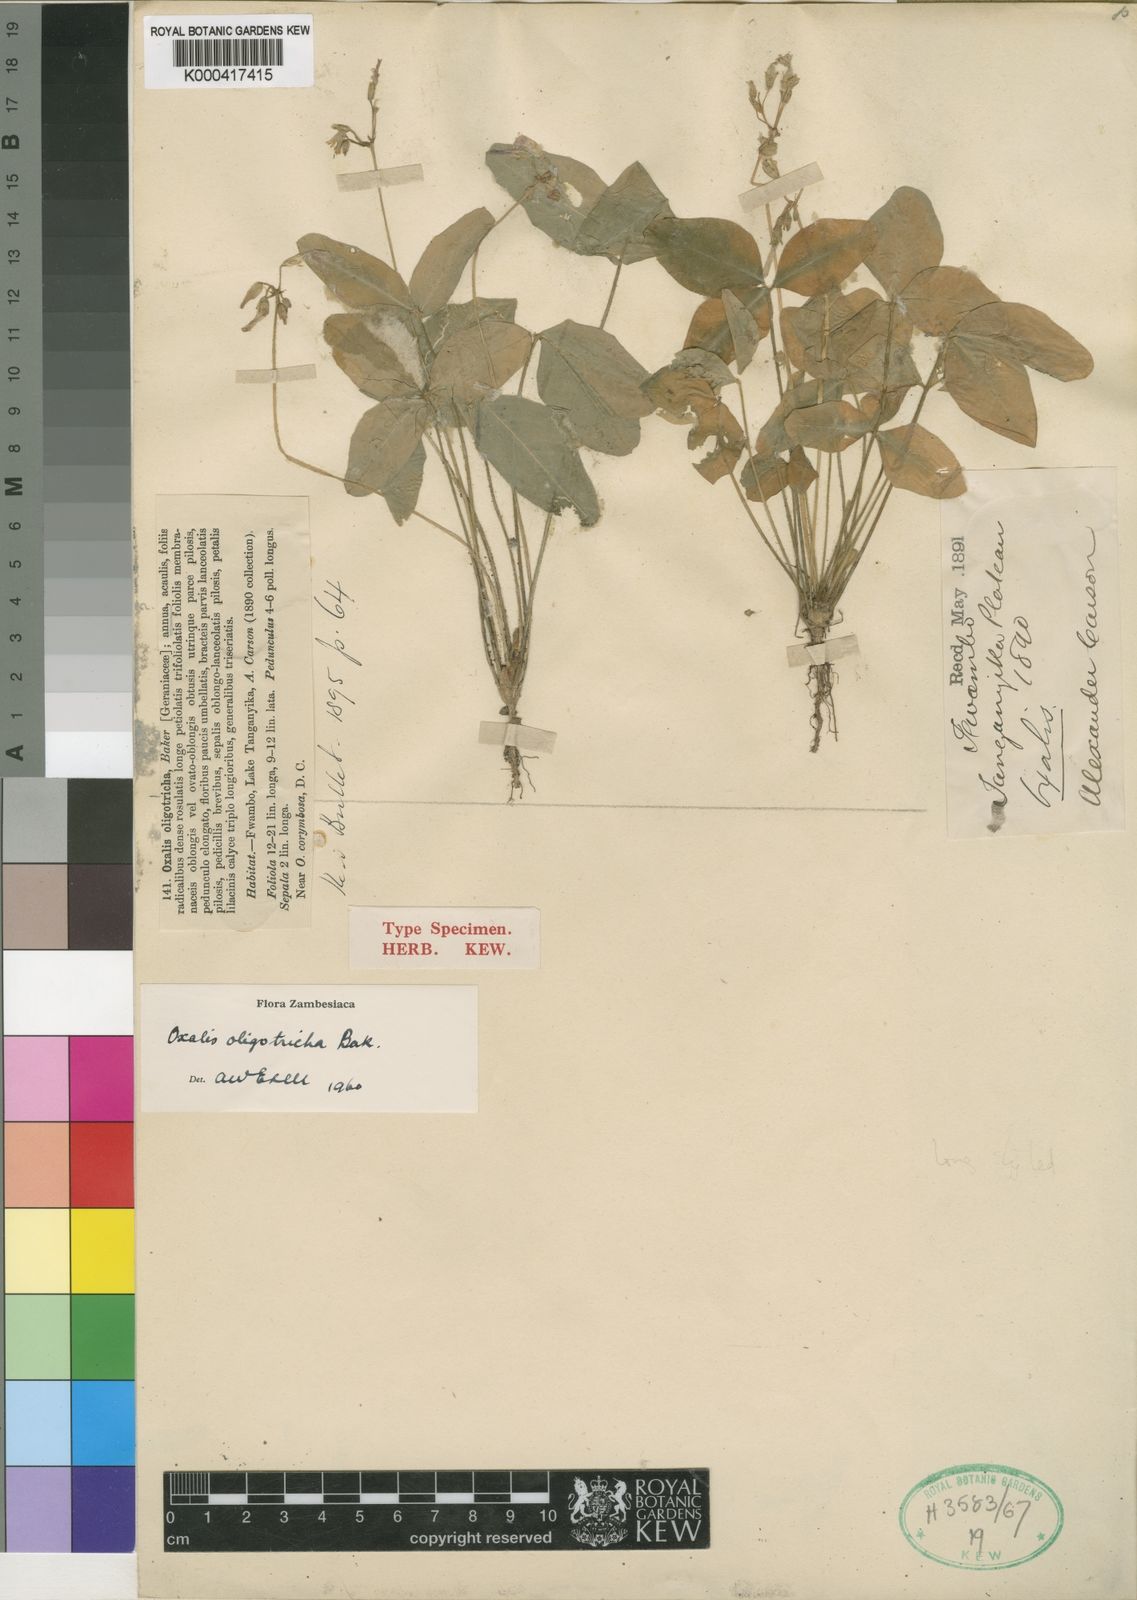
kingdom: Plantae
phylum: Tracheophyta
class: Magnoliopsida
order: Oxalidales
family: Oxalidaceae
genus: Oxalis
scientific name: Oxalis oligotricha
